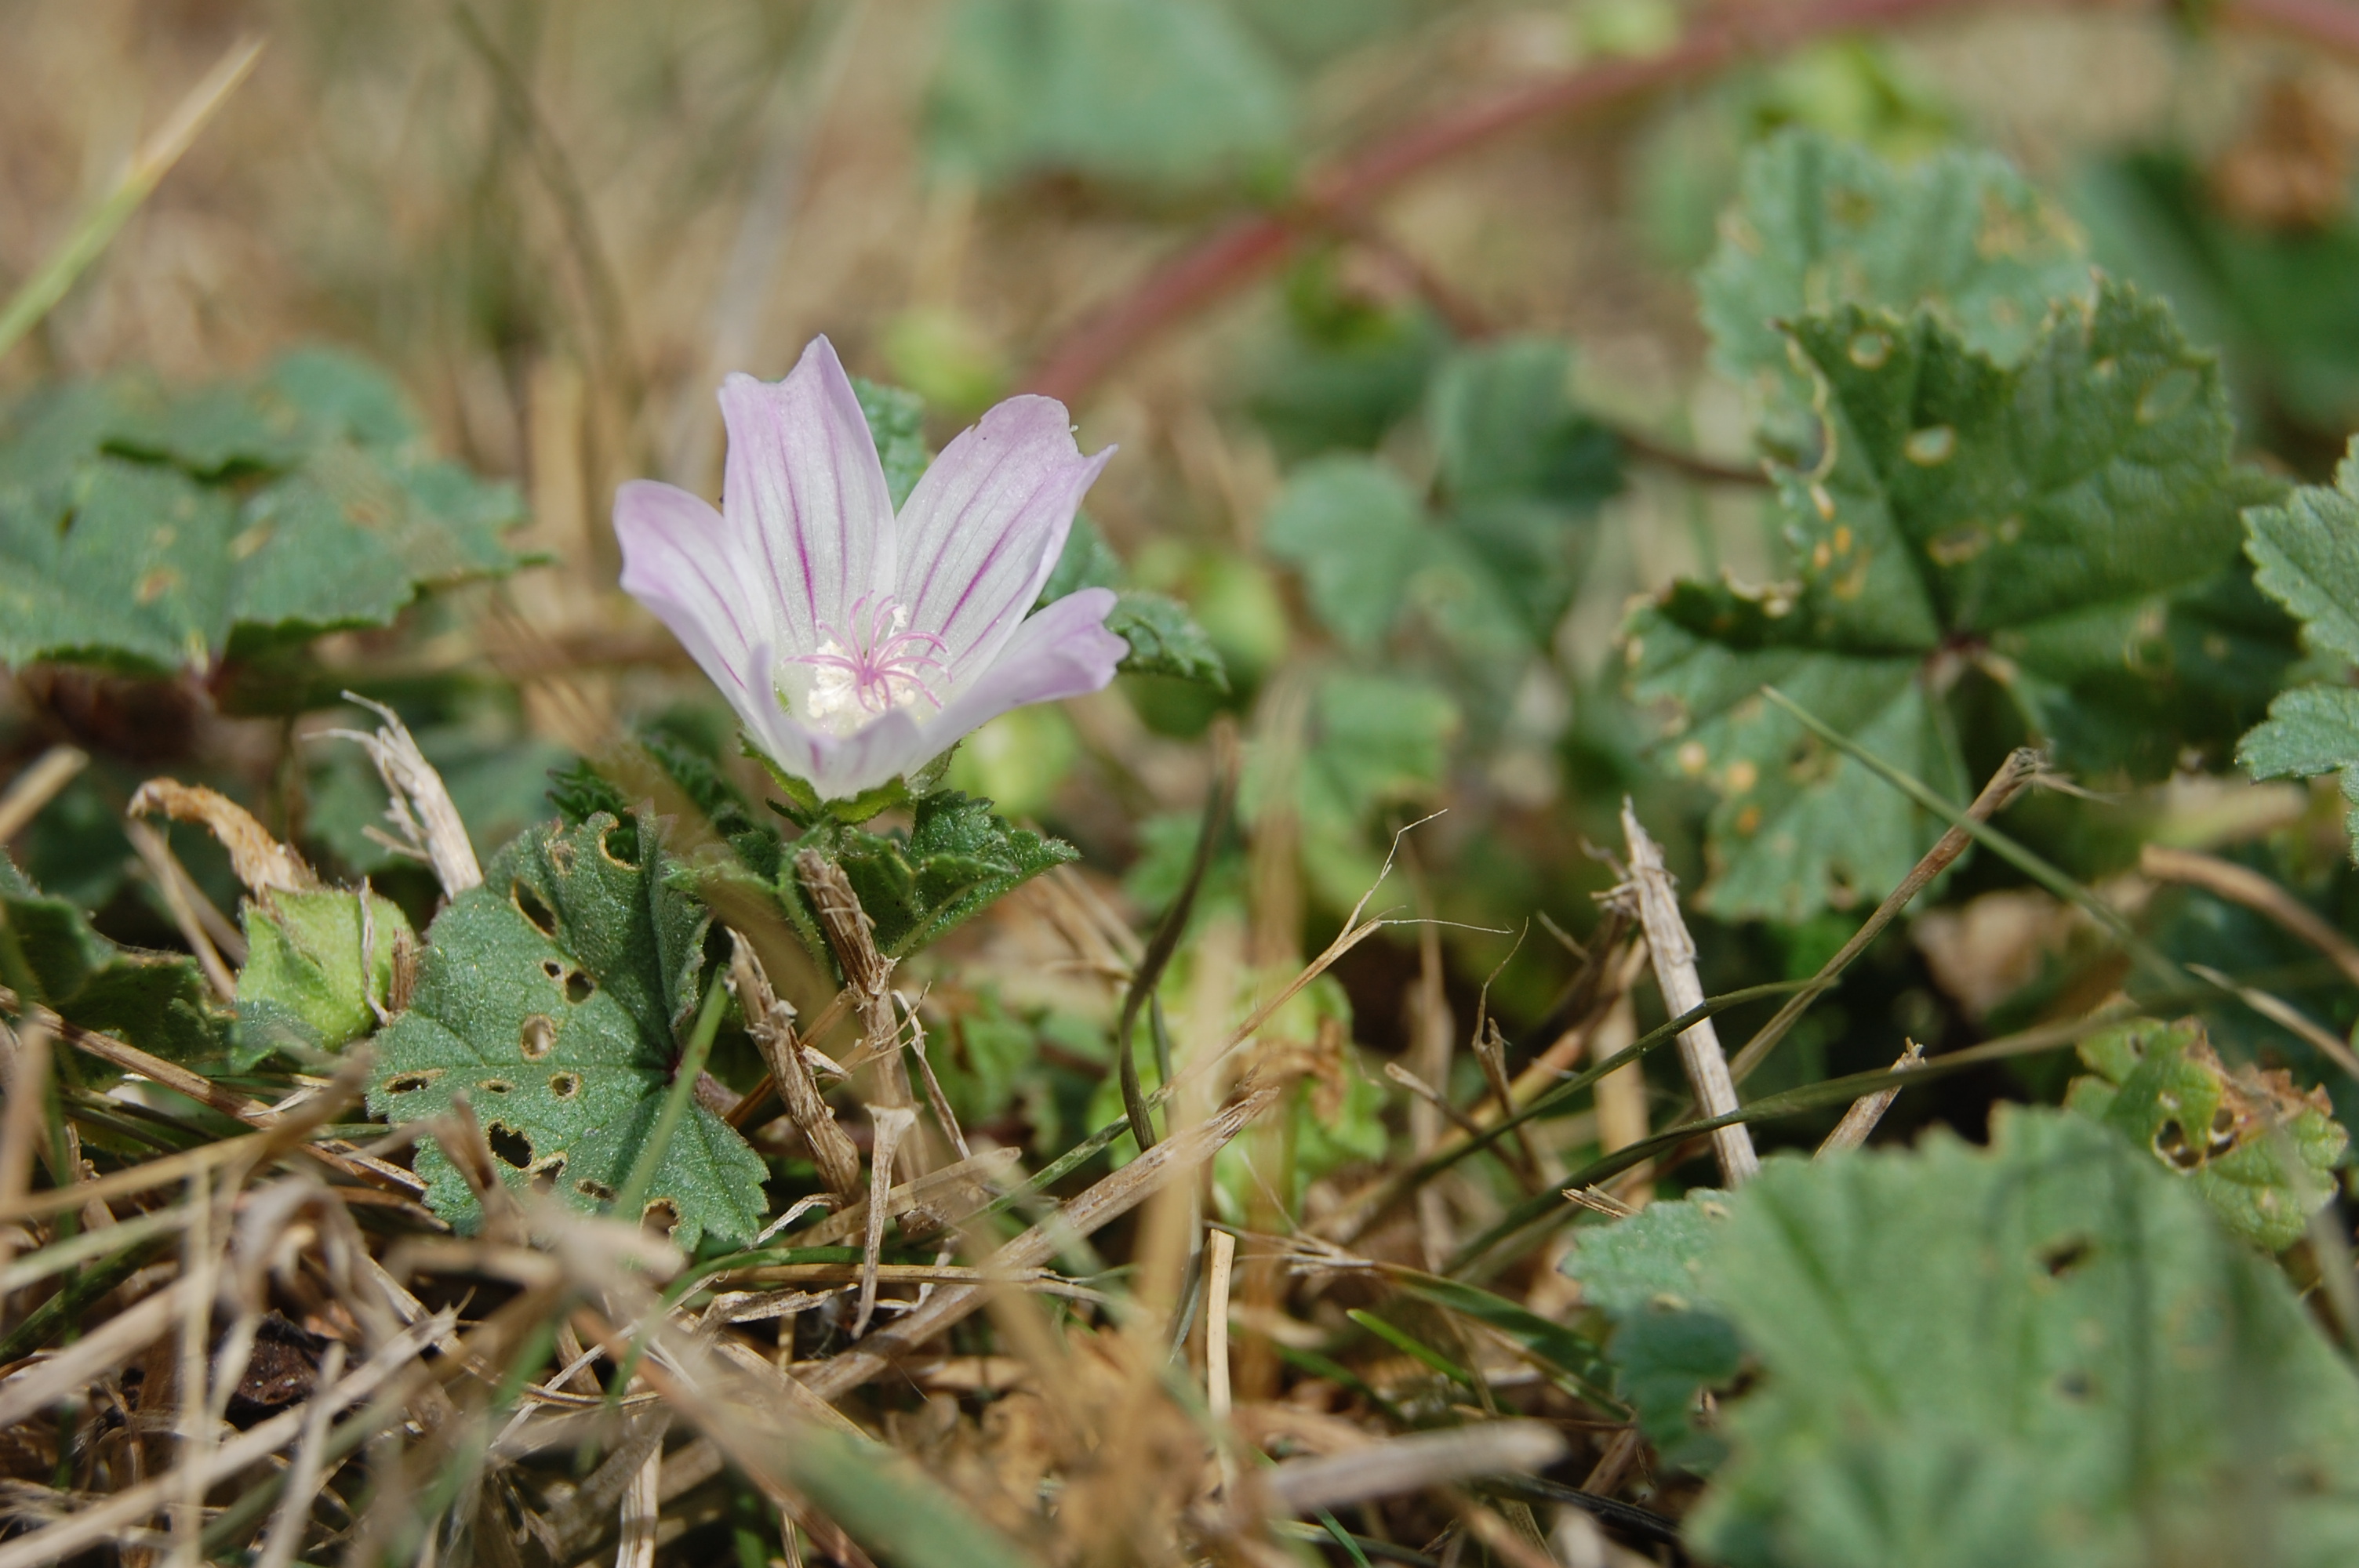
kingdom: Plantae
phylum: Tracheophyta
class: Magnoliopsida
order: Malvales
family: Malvaceae
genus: Malva
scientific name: Malva neglecta
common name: Common mallow
